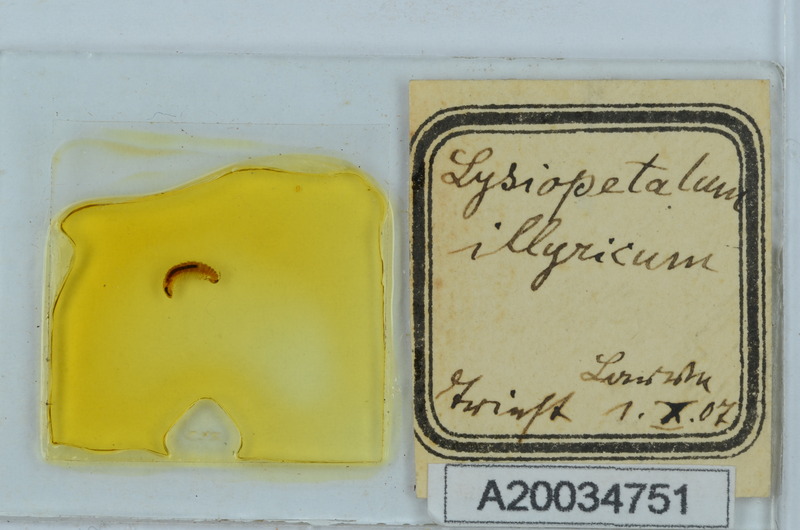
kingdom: Animalia
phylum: Arthropoda
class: Diplopoda
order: Callipodida
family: Schizopetalidae
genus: Dischizopetalum
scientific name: Dischizopetalum illyricum
